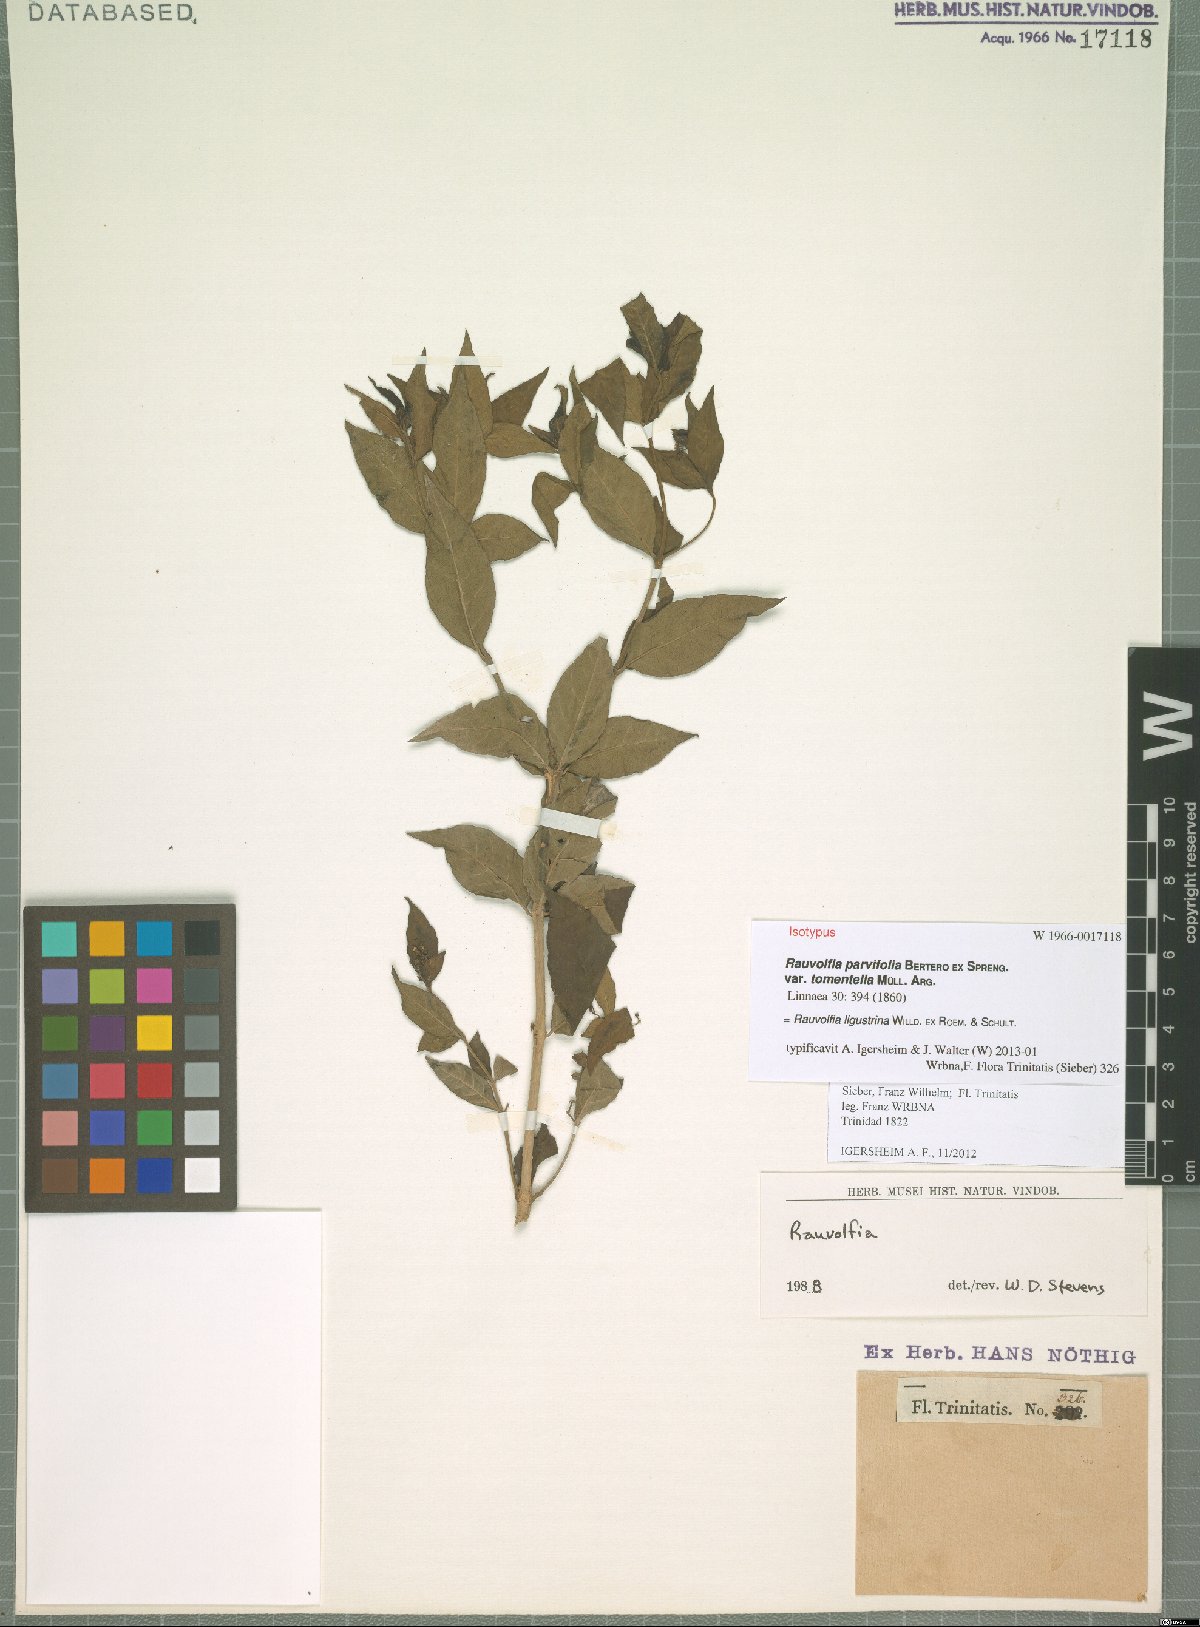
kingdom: Plantae
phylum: Tracheophyta
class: Magnoliopsida
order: Gentianales
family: Apocynaceae
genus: Rauvolfia
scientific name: Rauvolfia ligustrina
